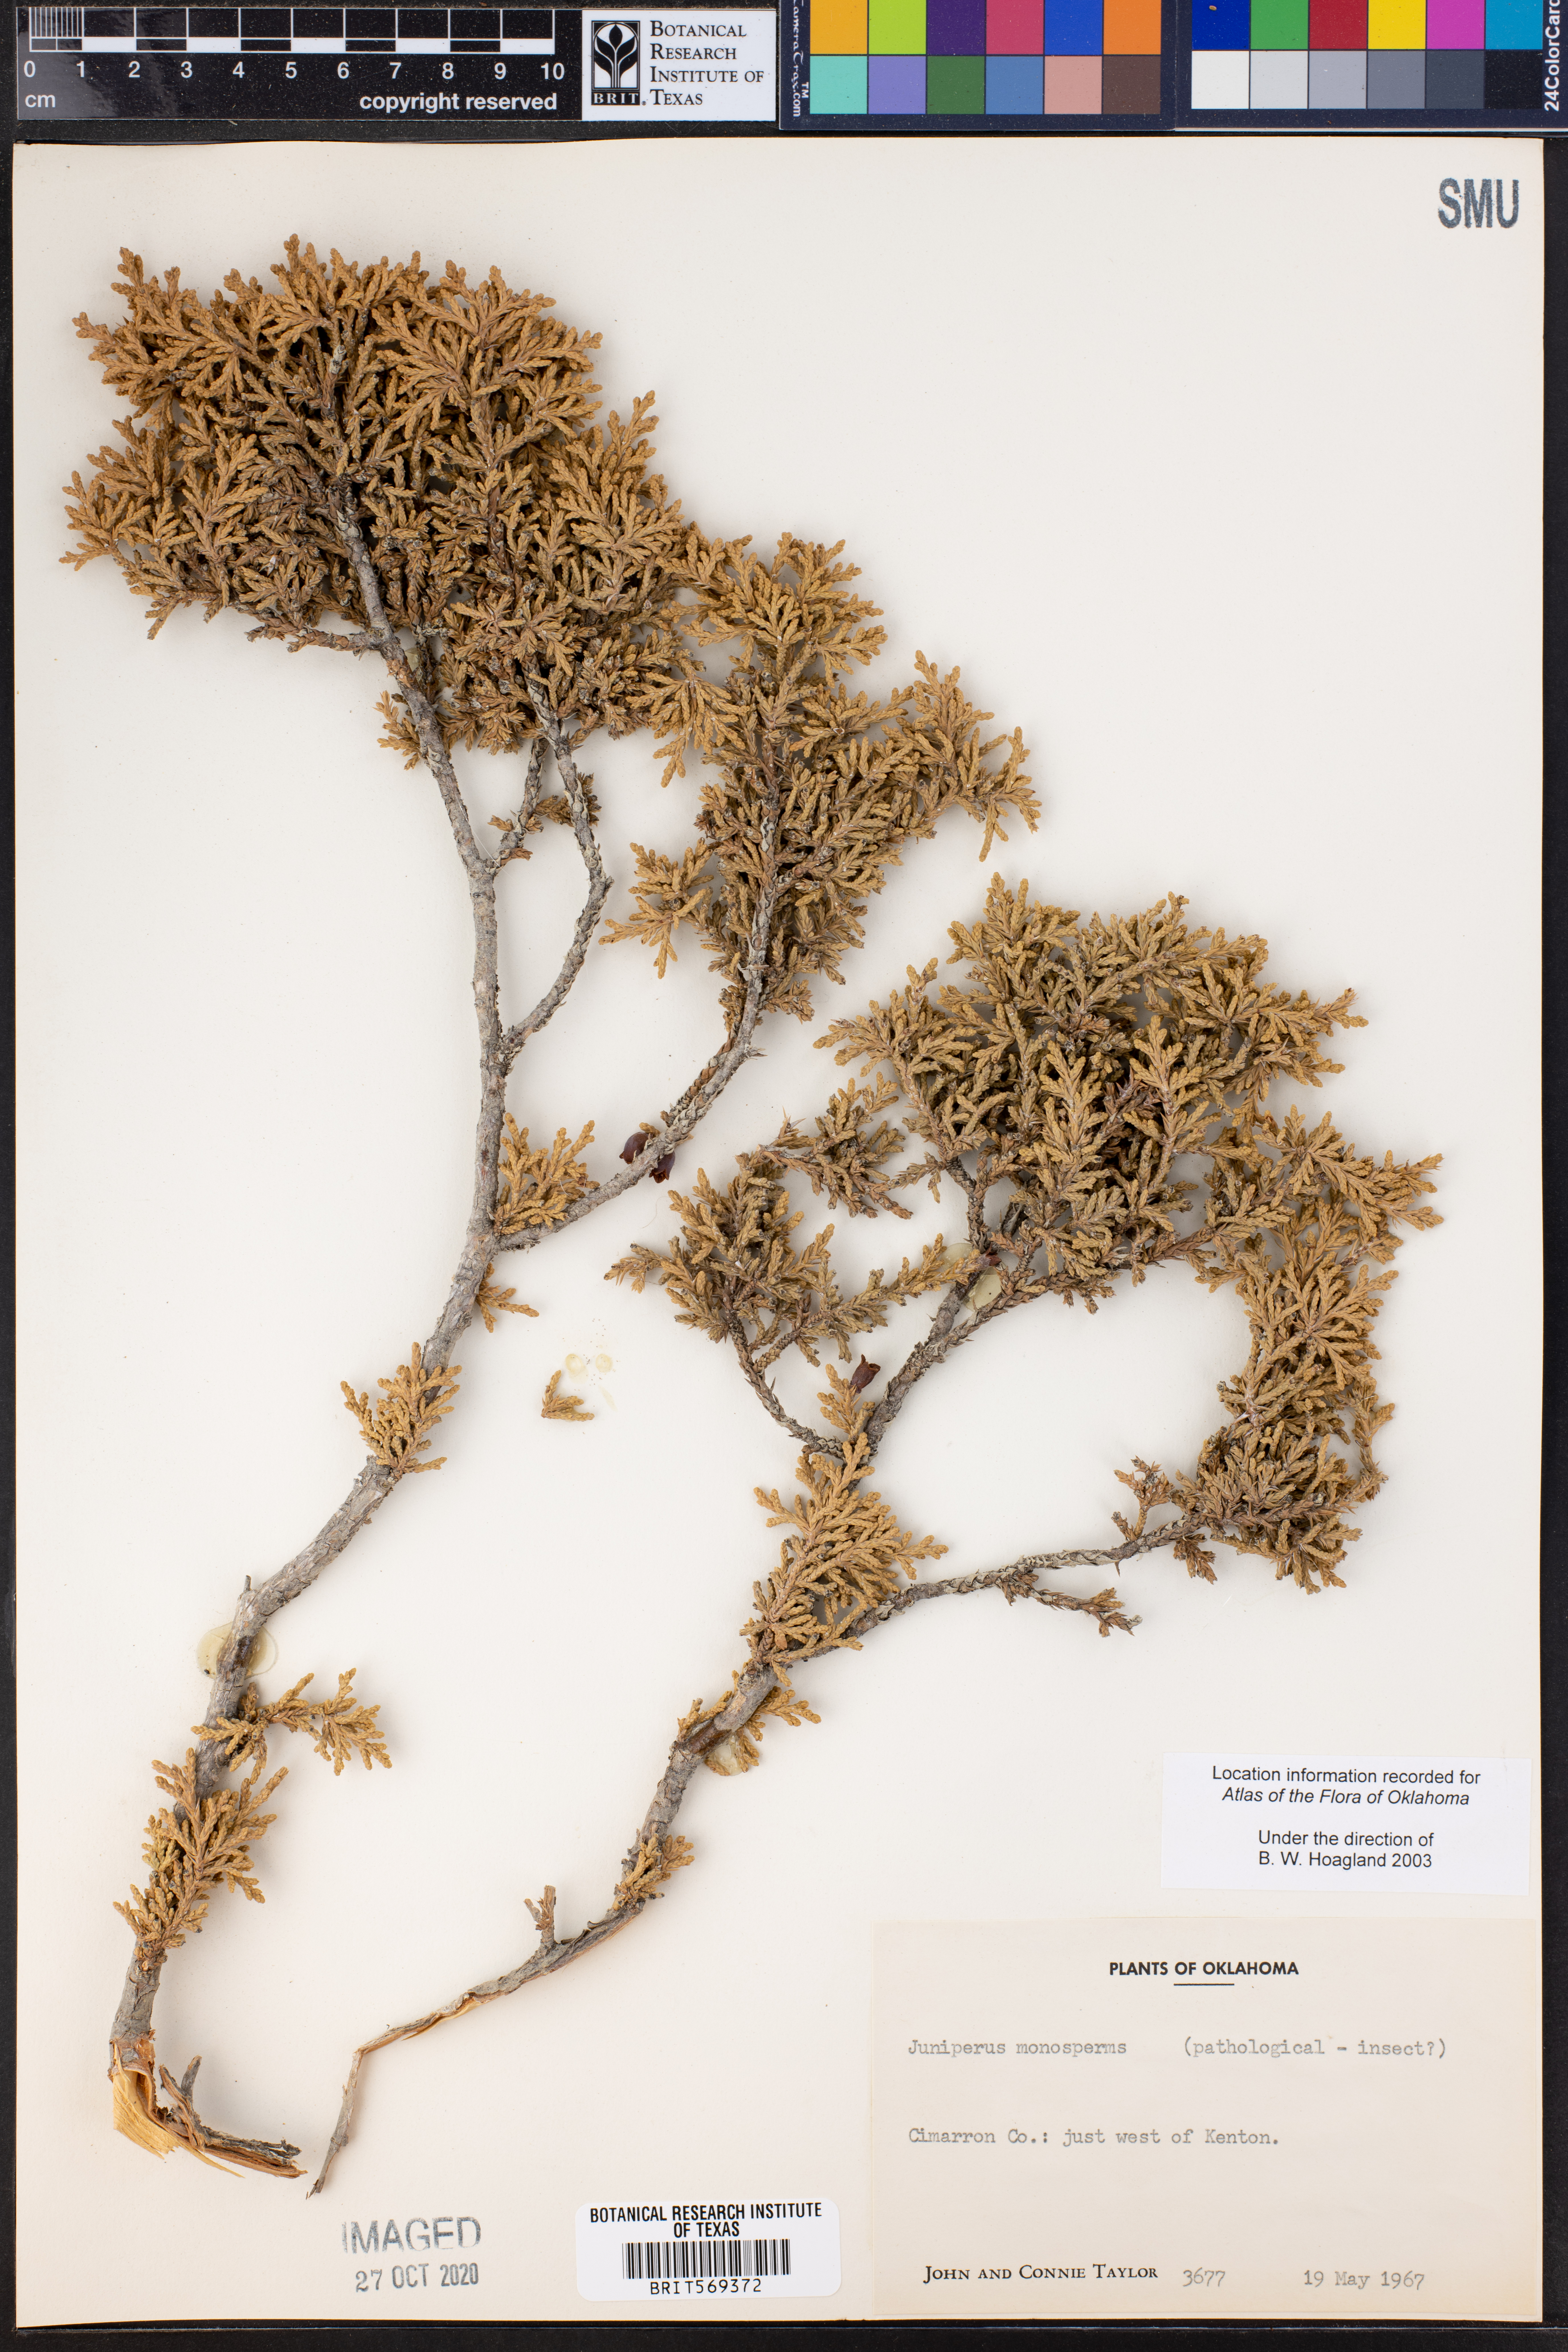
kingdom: Plantae
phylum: Tracheophyta
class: Pinopsida
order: Pinales
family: Cupressaceae
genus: Juniperus
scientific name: Juniperus monosperma
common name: One-seed juniper
